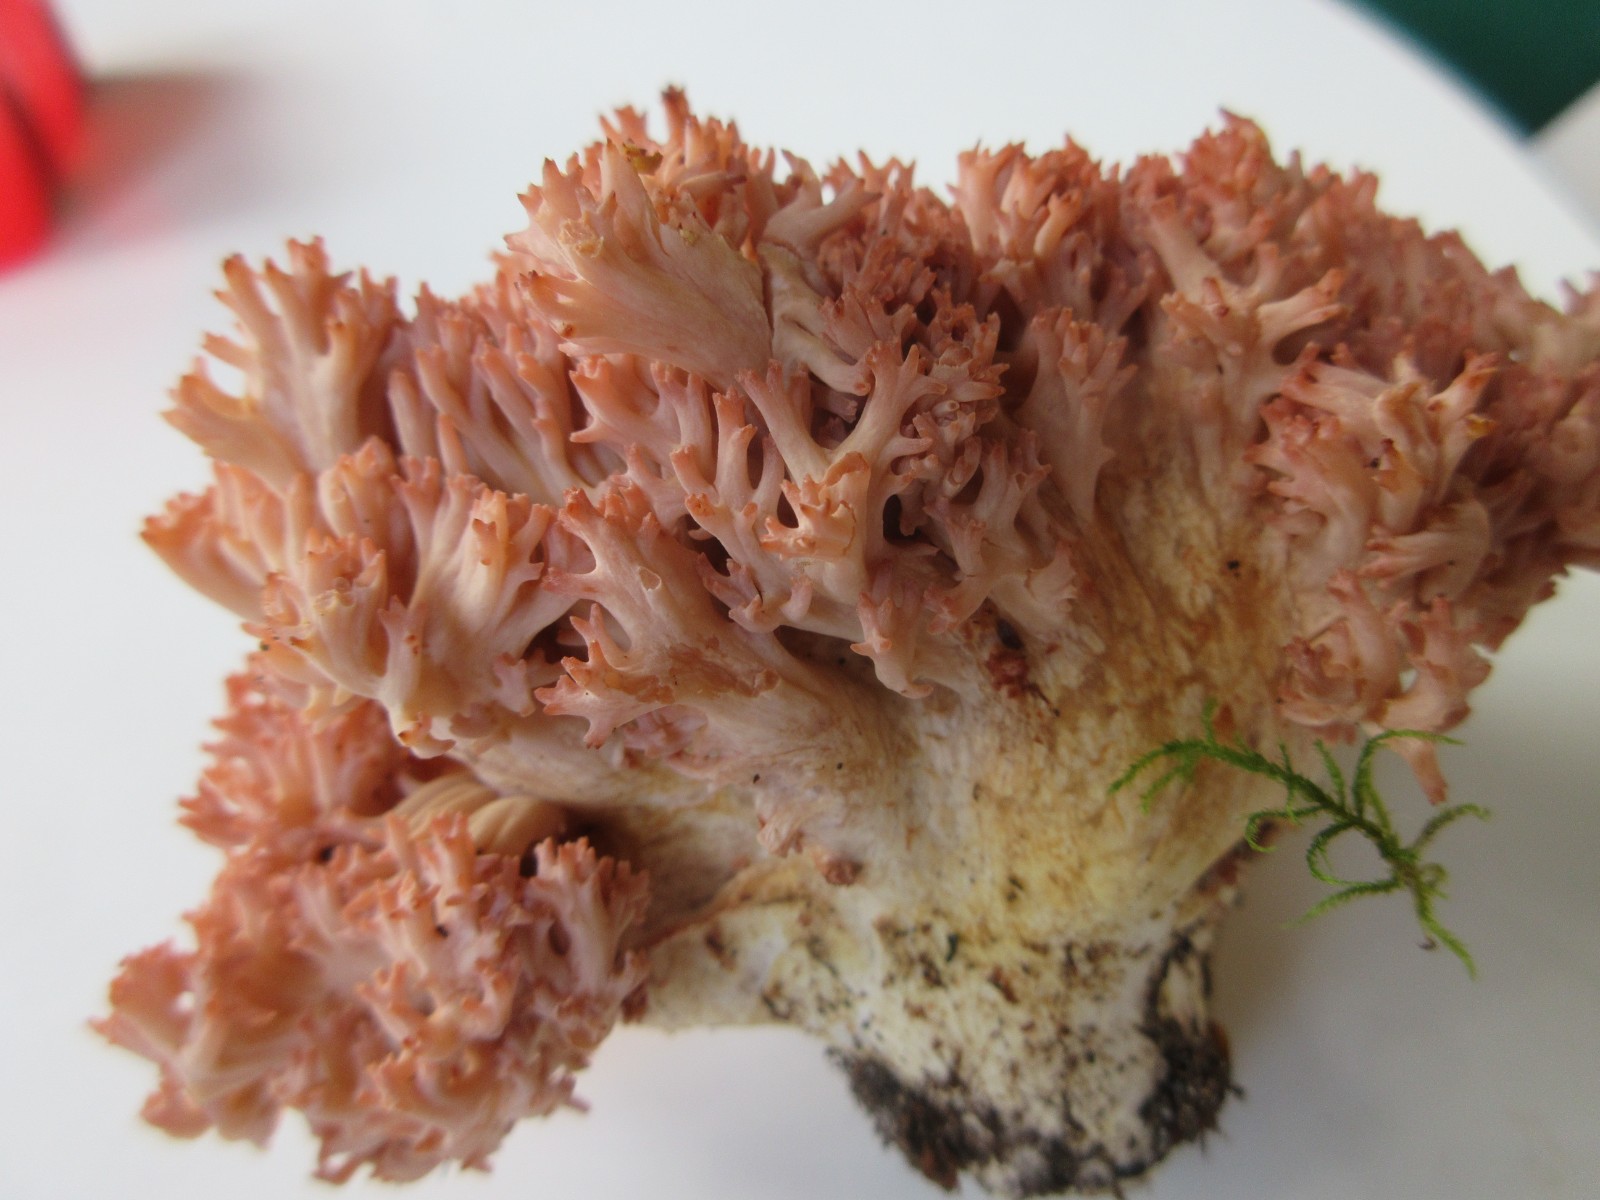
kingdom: Fungi
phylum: Basidiomycota
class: Agaricomycetes
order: Gomphales
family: Gomphaceae
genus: Ramaria
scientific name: Ramaria botrytis
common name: drue-koralsvamp
